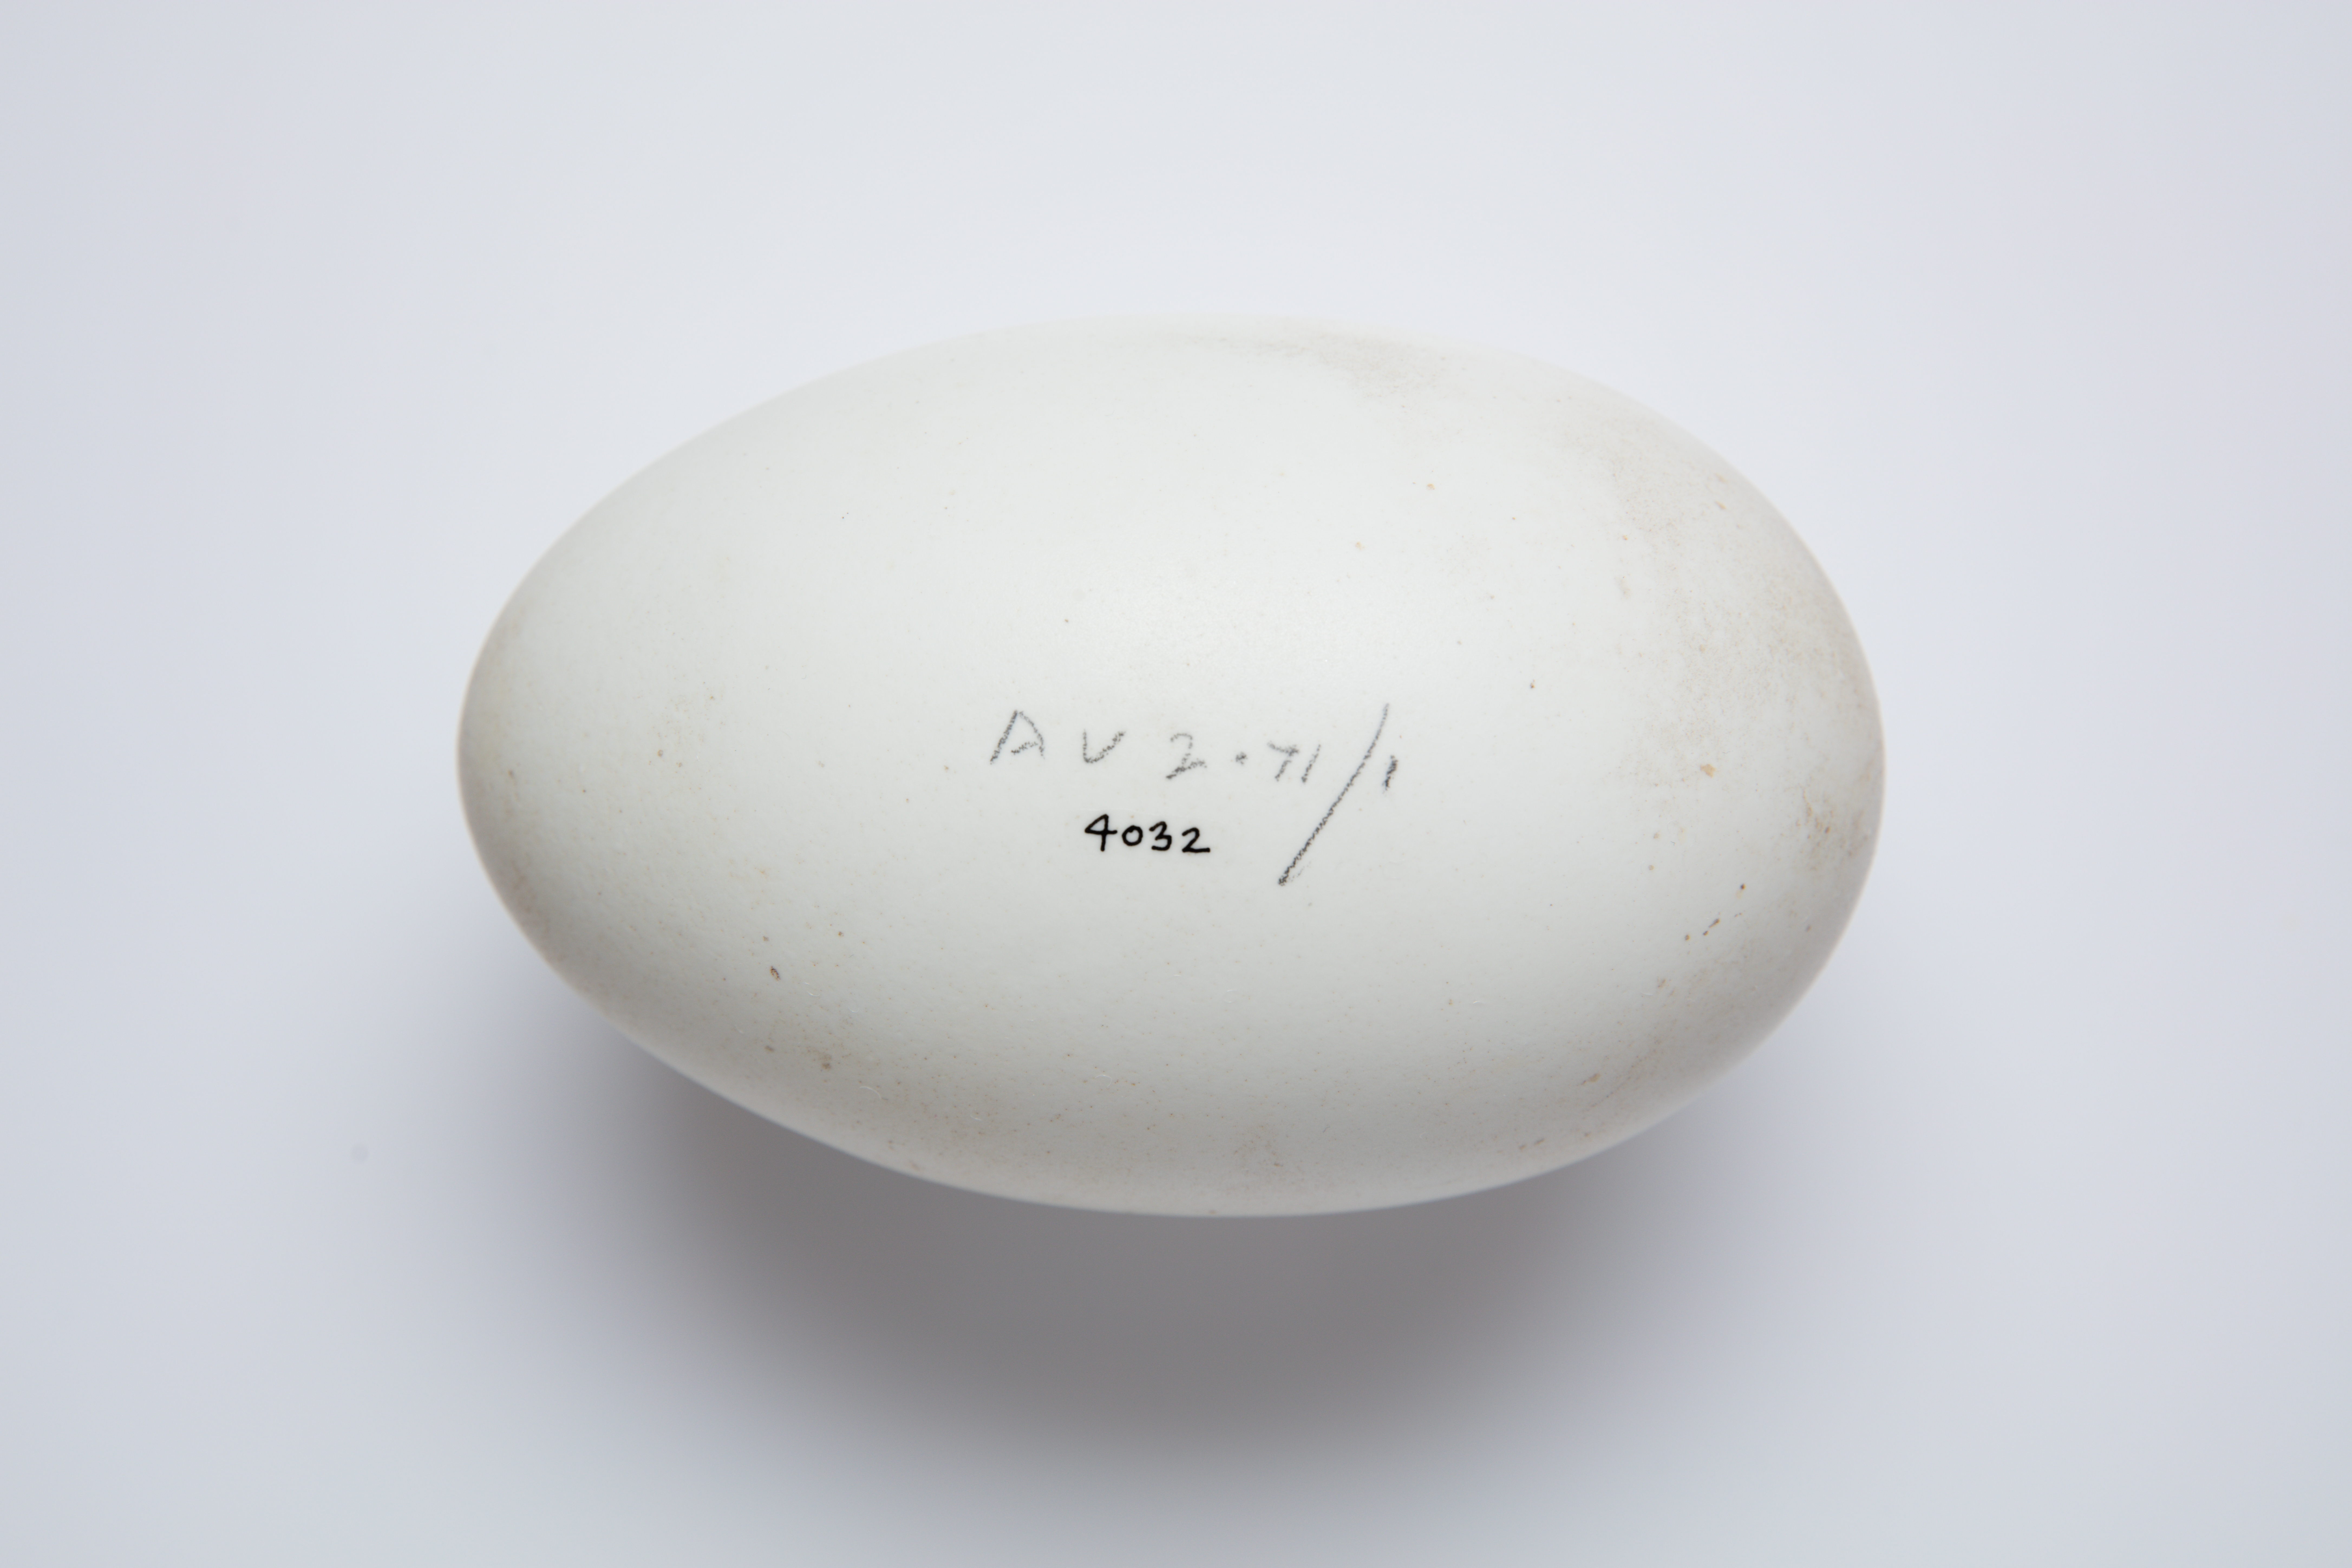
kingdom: Animalia
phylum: Chordata
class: Aves
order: Apterygiformes
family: Apterygidae
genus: Apteryx
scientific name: Apteryx mantelli
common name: North island brown kiwi
